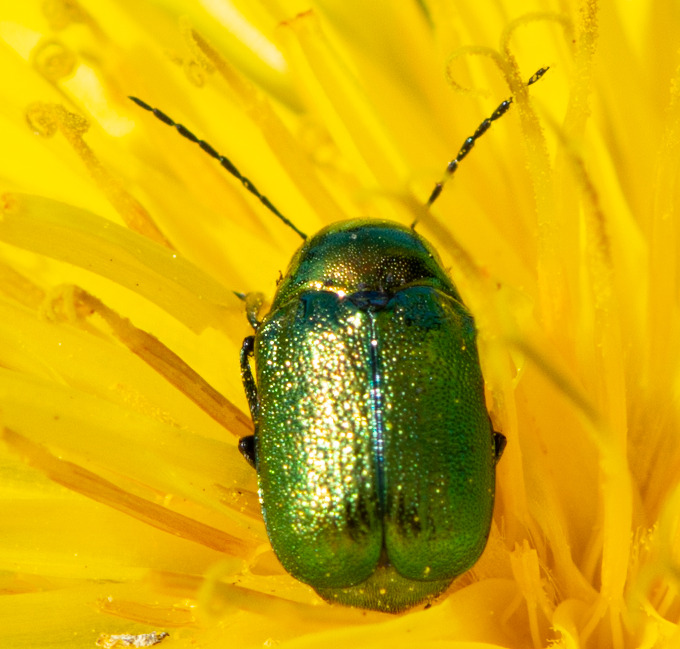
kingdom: Animalia
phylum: Arthropoda
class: Insecta
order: Coleoptera
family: Chrysomelidae
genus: Cryptocephalus
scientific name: Cryptocephalus aureolus
